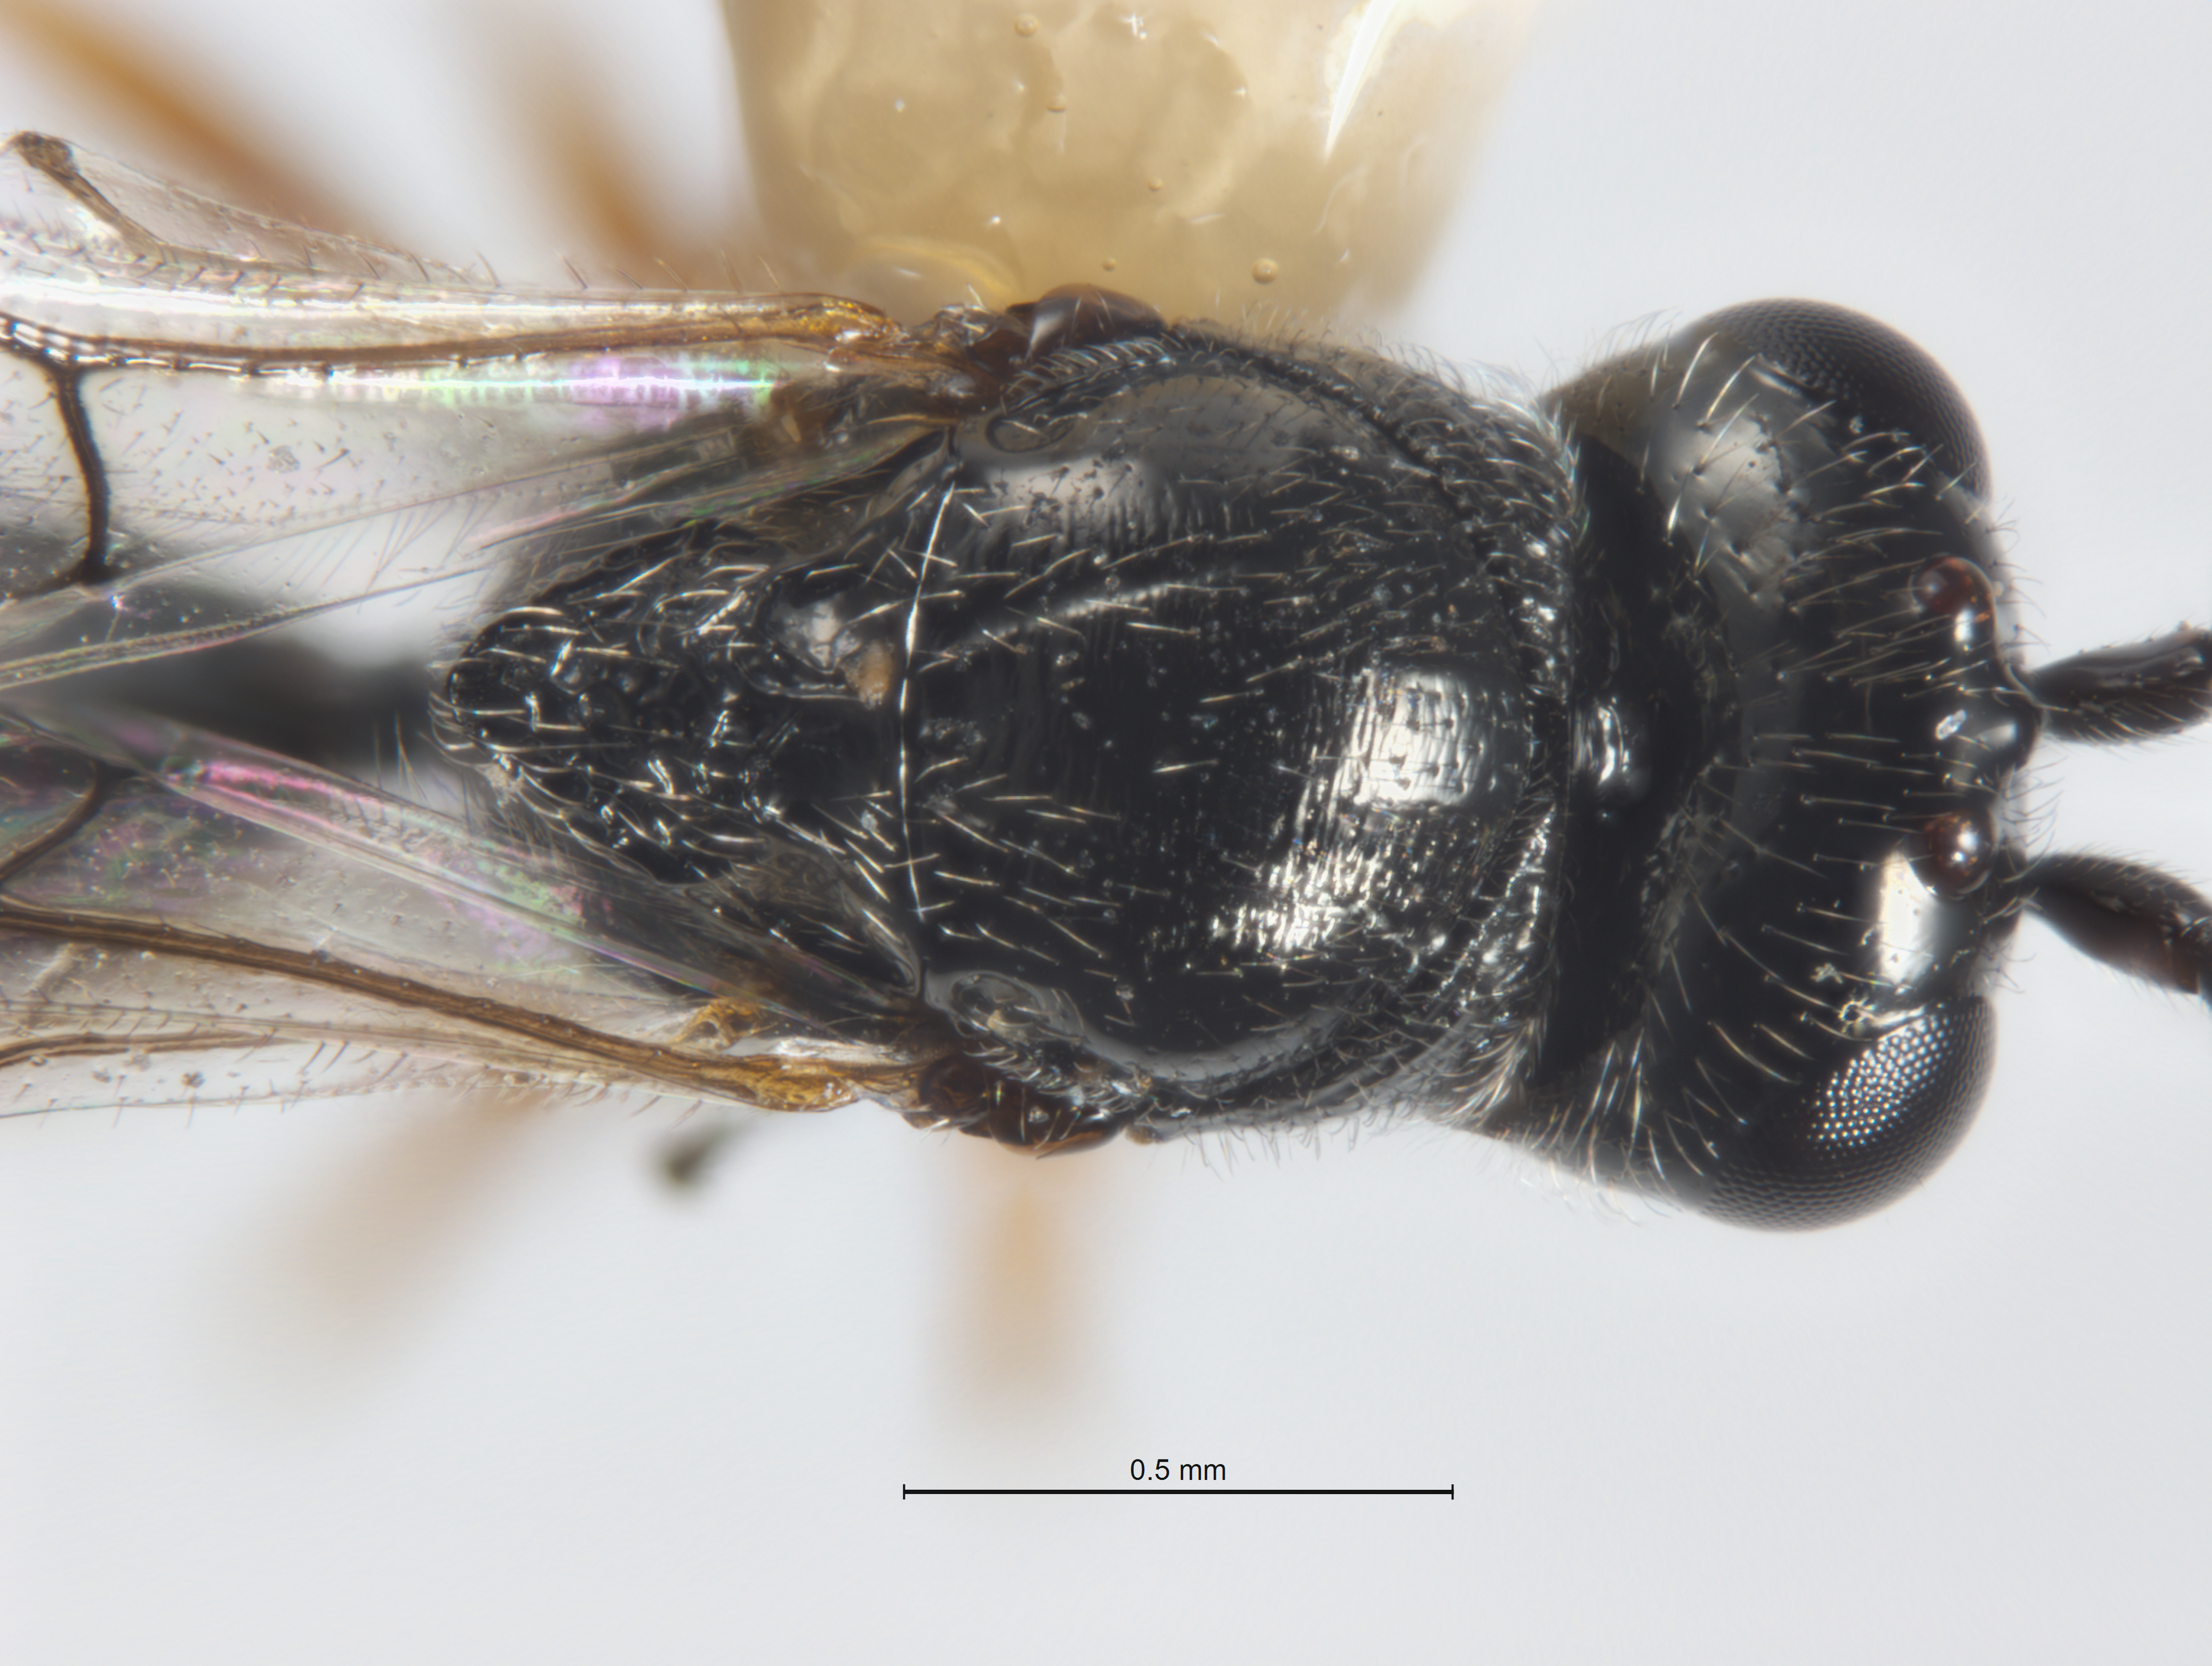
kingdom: Animalia
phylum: Arthropoda
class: Insecta
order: Hymenoptera
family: Figitidae
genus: Xyalaspis
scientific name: Xyalaspis
